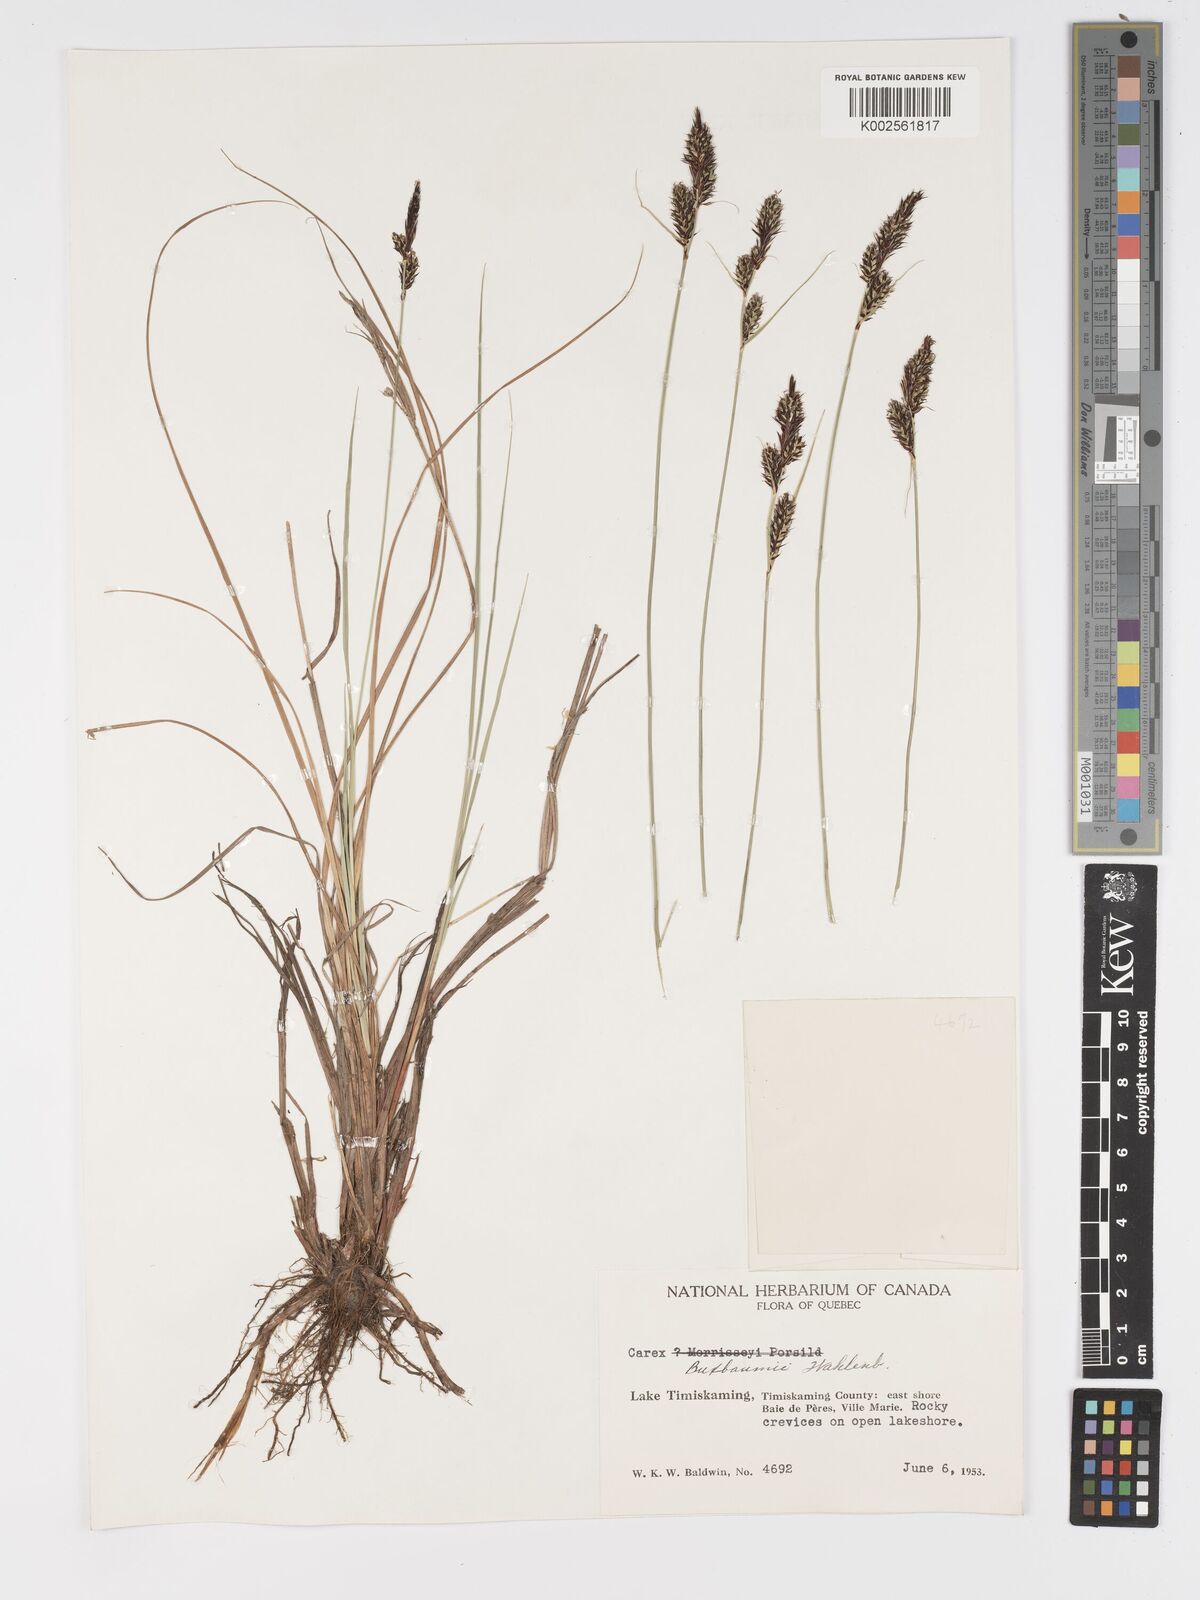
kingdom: Plantae
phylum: Tracheophyta
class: Liliopsida
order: Poales
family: Cyperaceae
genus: Carex
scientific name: Carex buxbaumii
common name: Club sedge
